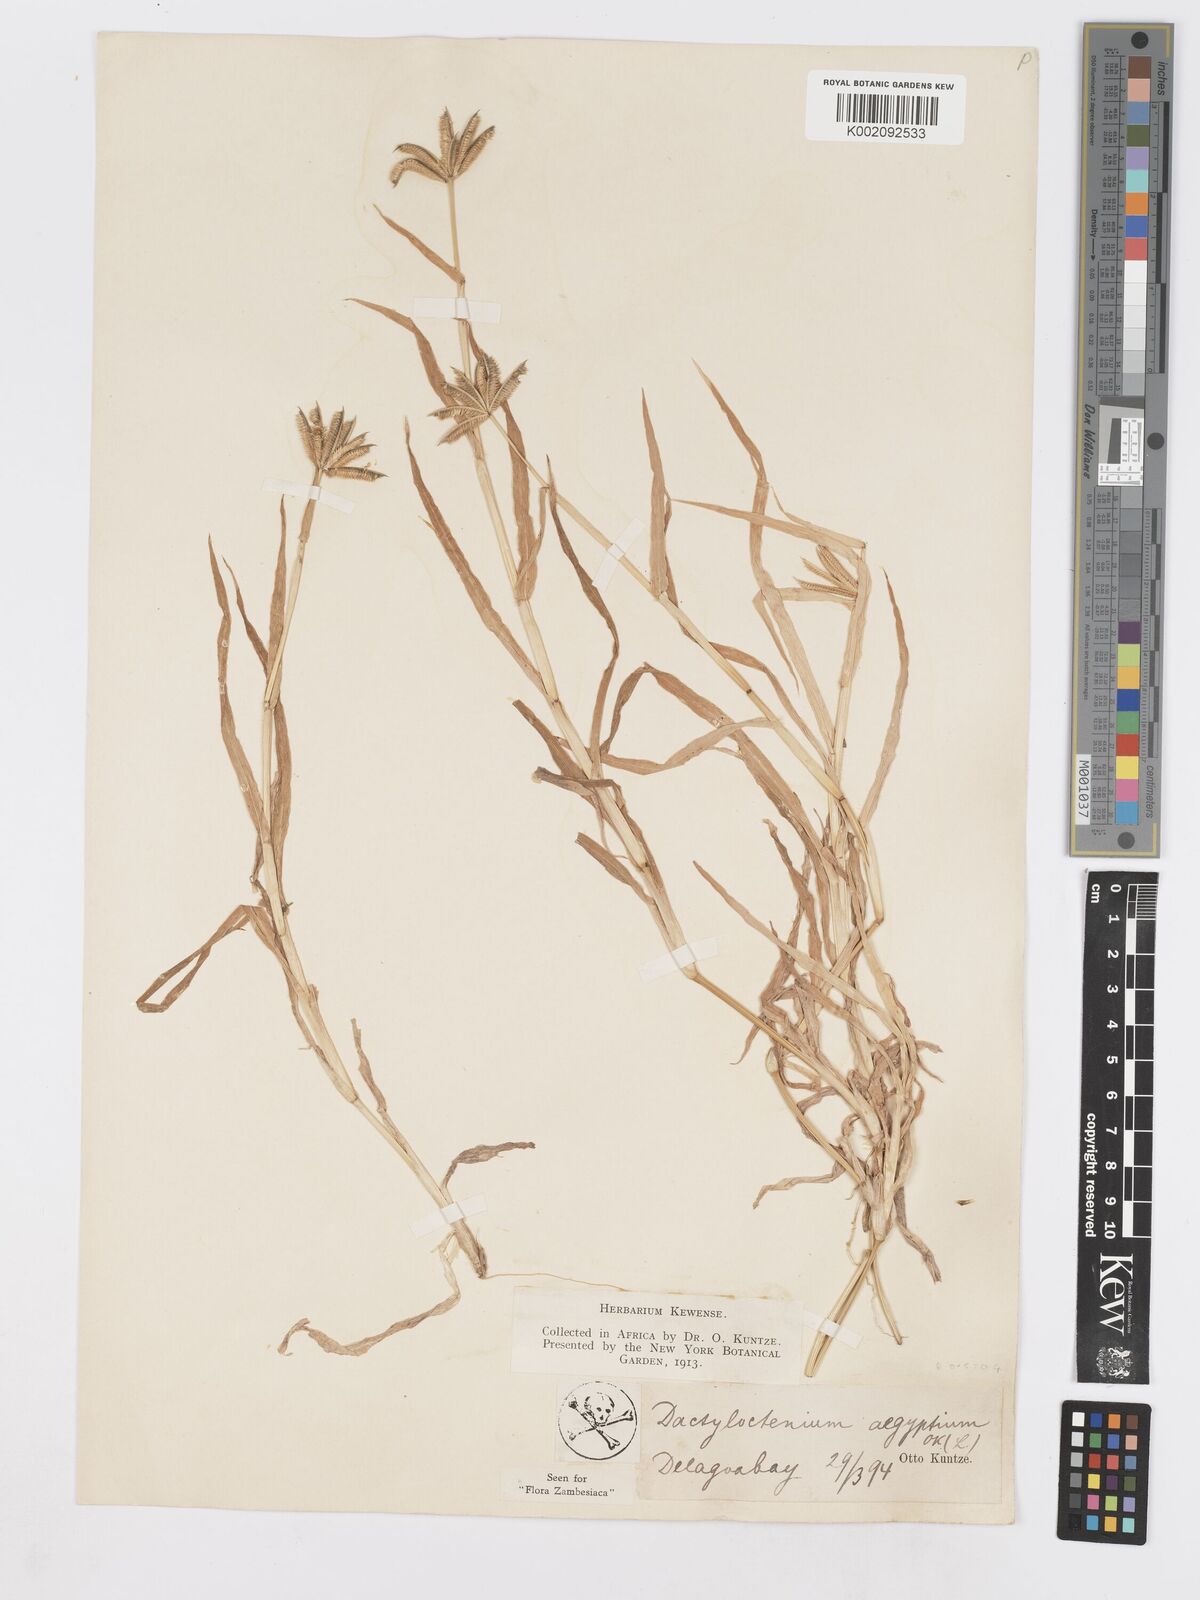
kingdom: Plantae
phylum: Tracheophyta
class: Liliopsida
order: Poales
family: Poaceae
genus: Dactyloctenium
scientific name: Dactyloctenium aegyptium
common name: Egyptian grass
